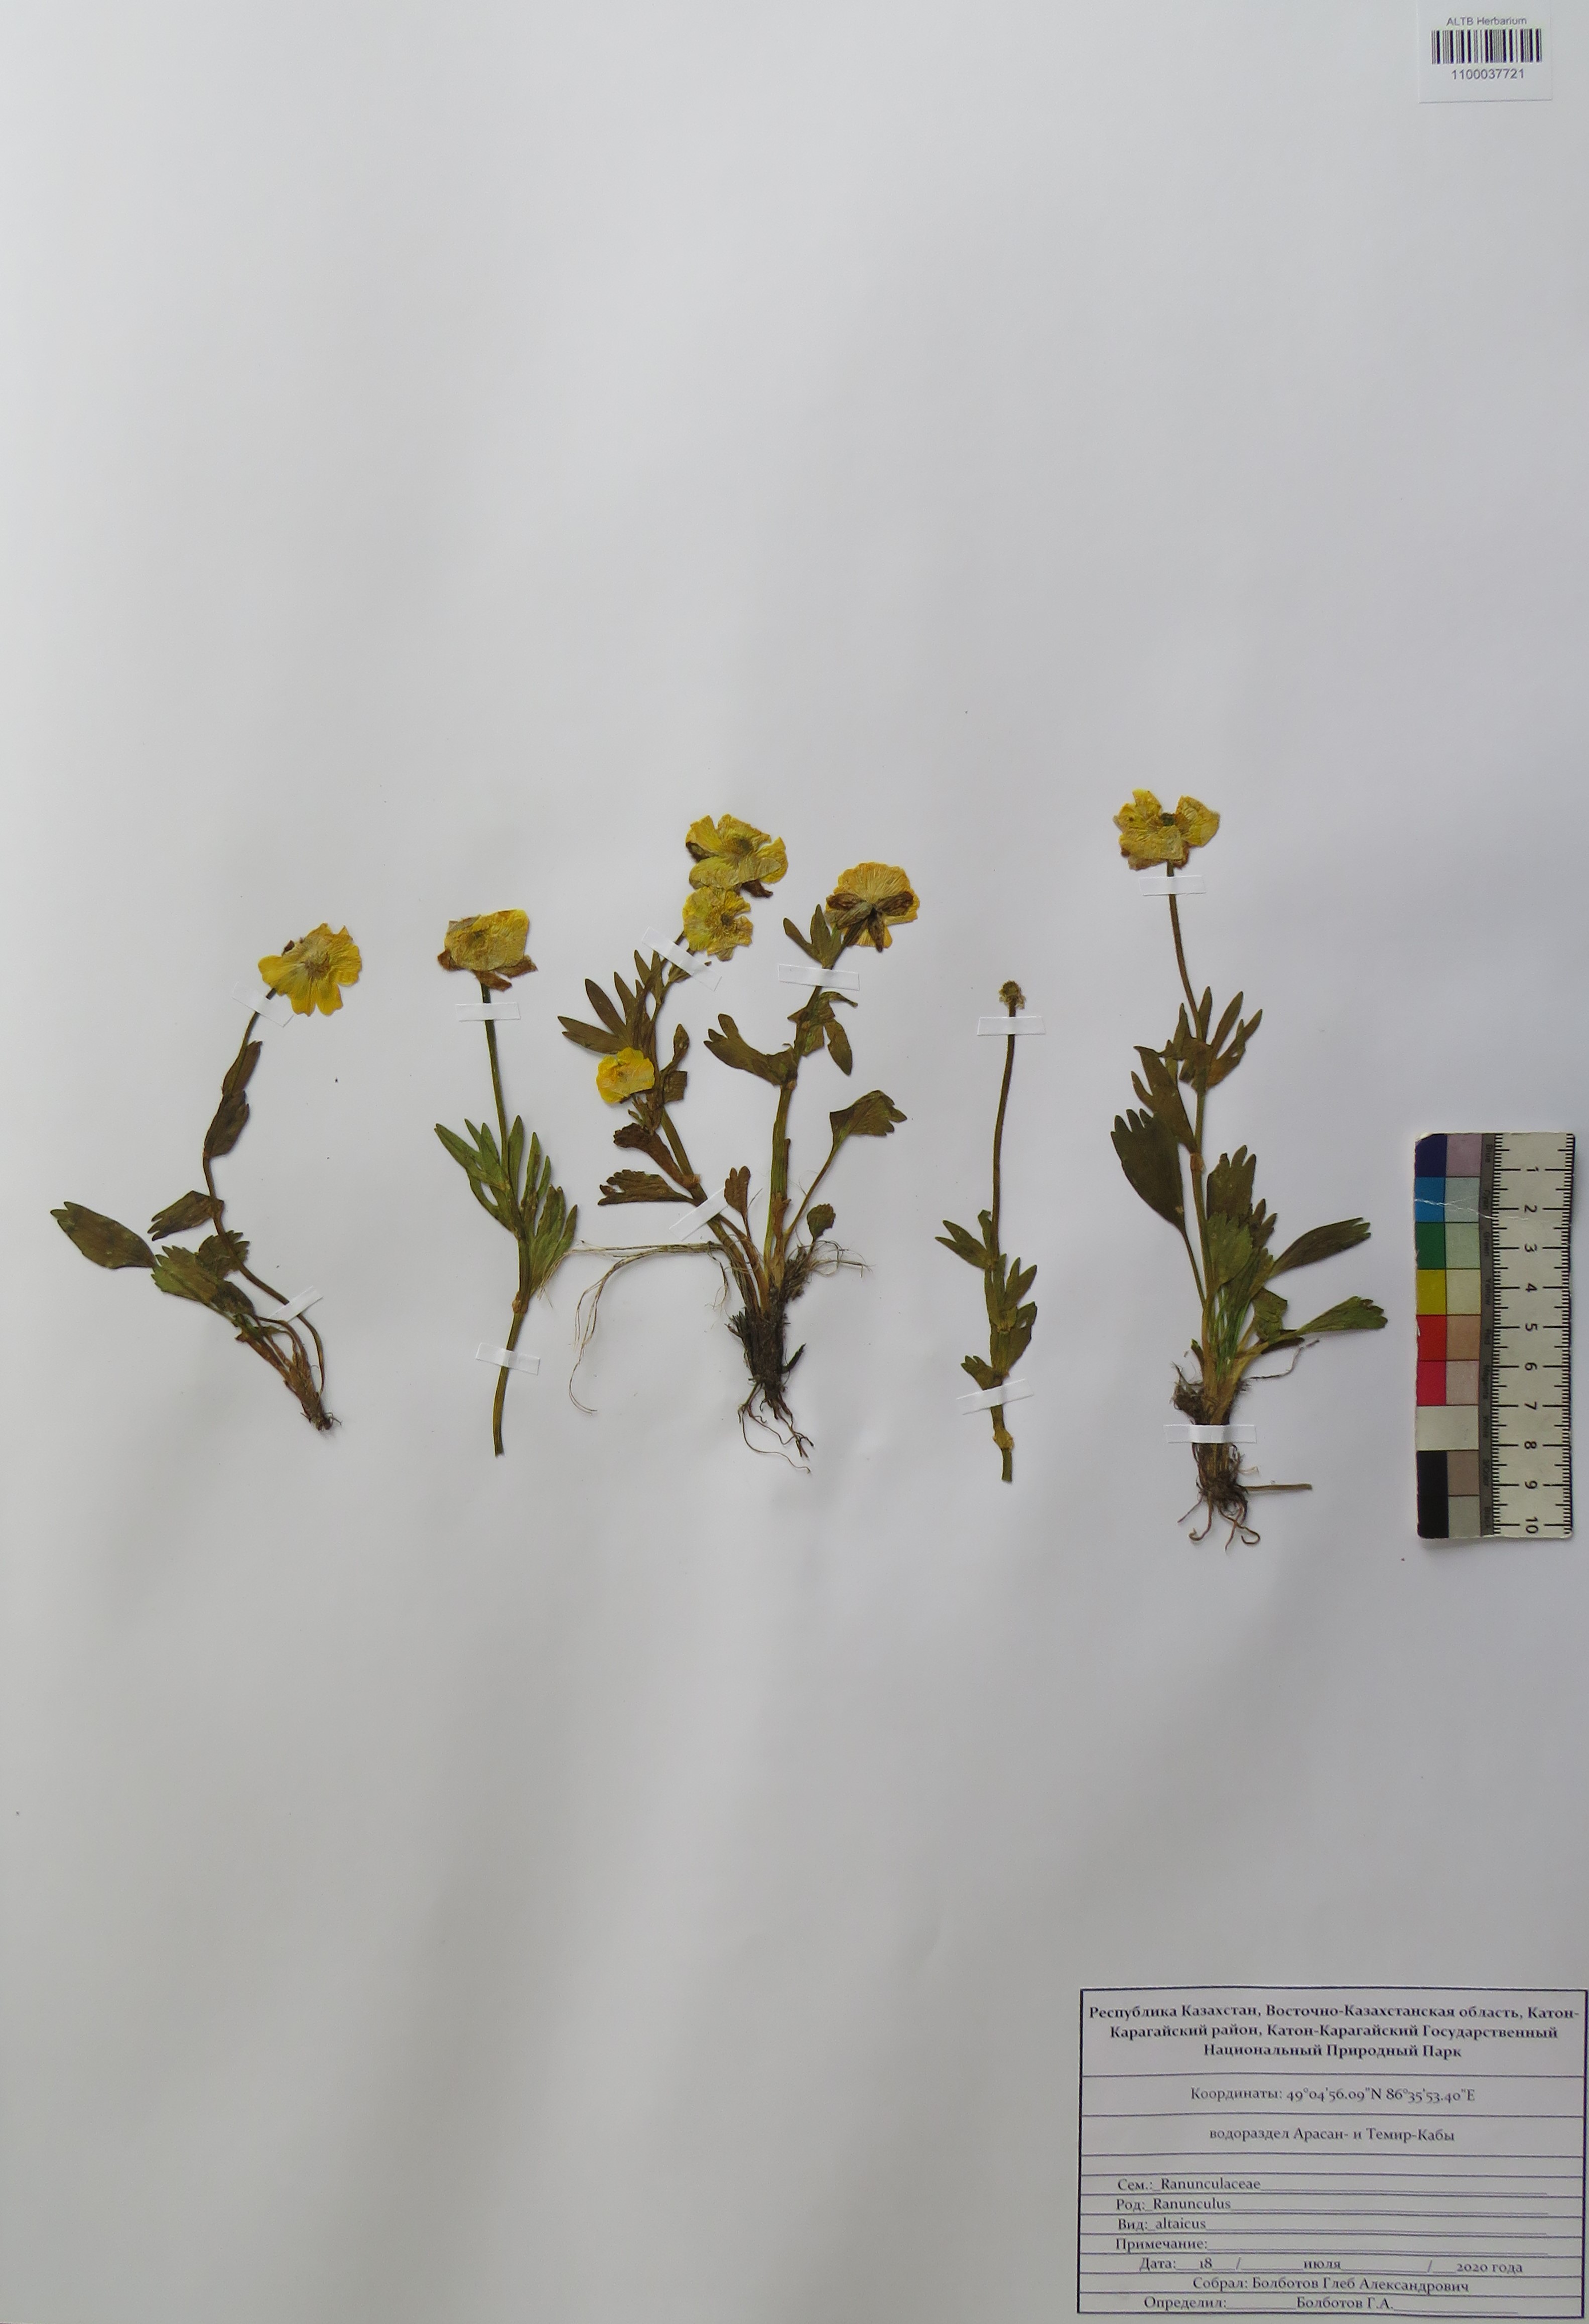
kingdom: Plantae
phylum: Tracheophyta
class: Magnoliopsida
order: Ranunculales
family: Ranunculaceae
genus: Ranunculus
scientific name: Ranunculus altaicus
